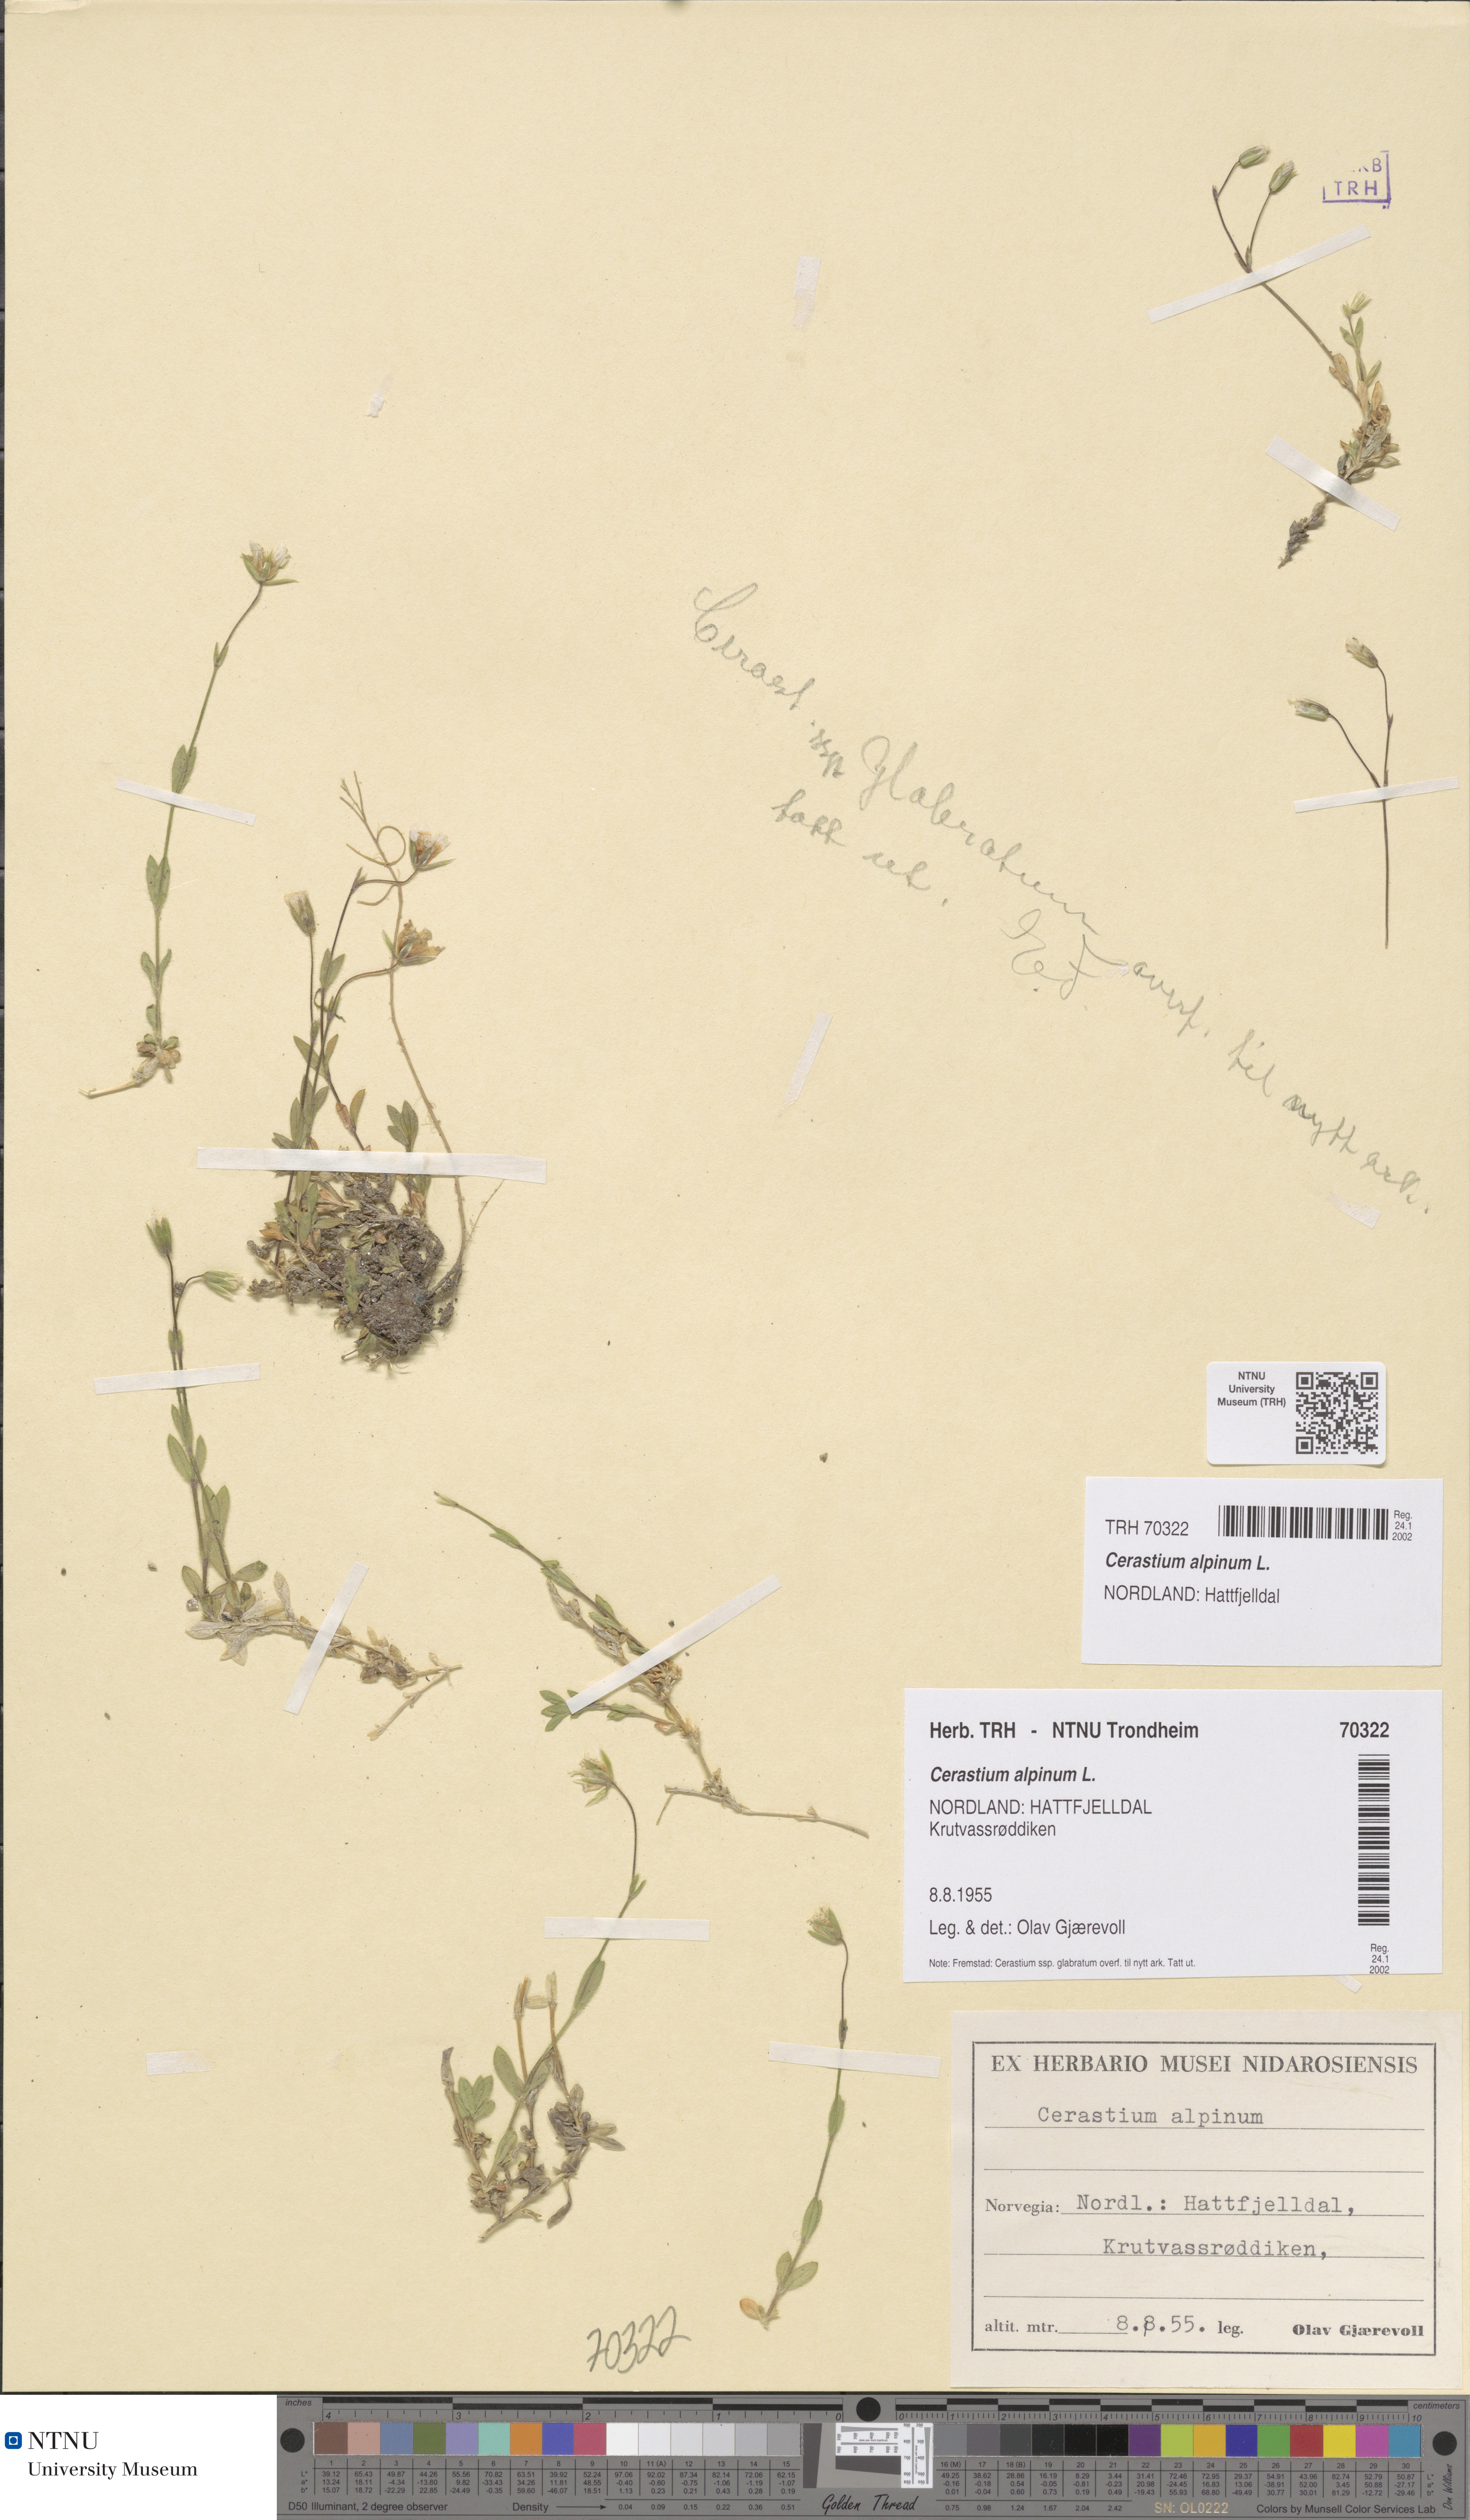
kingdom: Plantae
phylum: Tracheophyta
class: Magnoliopsida
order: Caryophyllales
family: Caryophyllaceae
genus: Cerastium
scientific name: Cerastium alpinum
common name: Alpine mouse-ear
